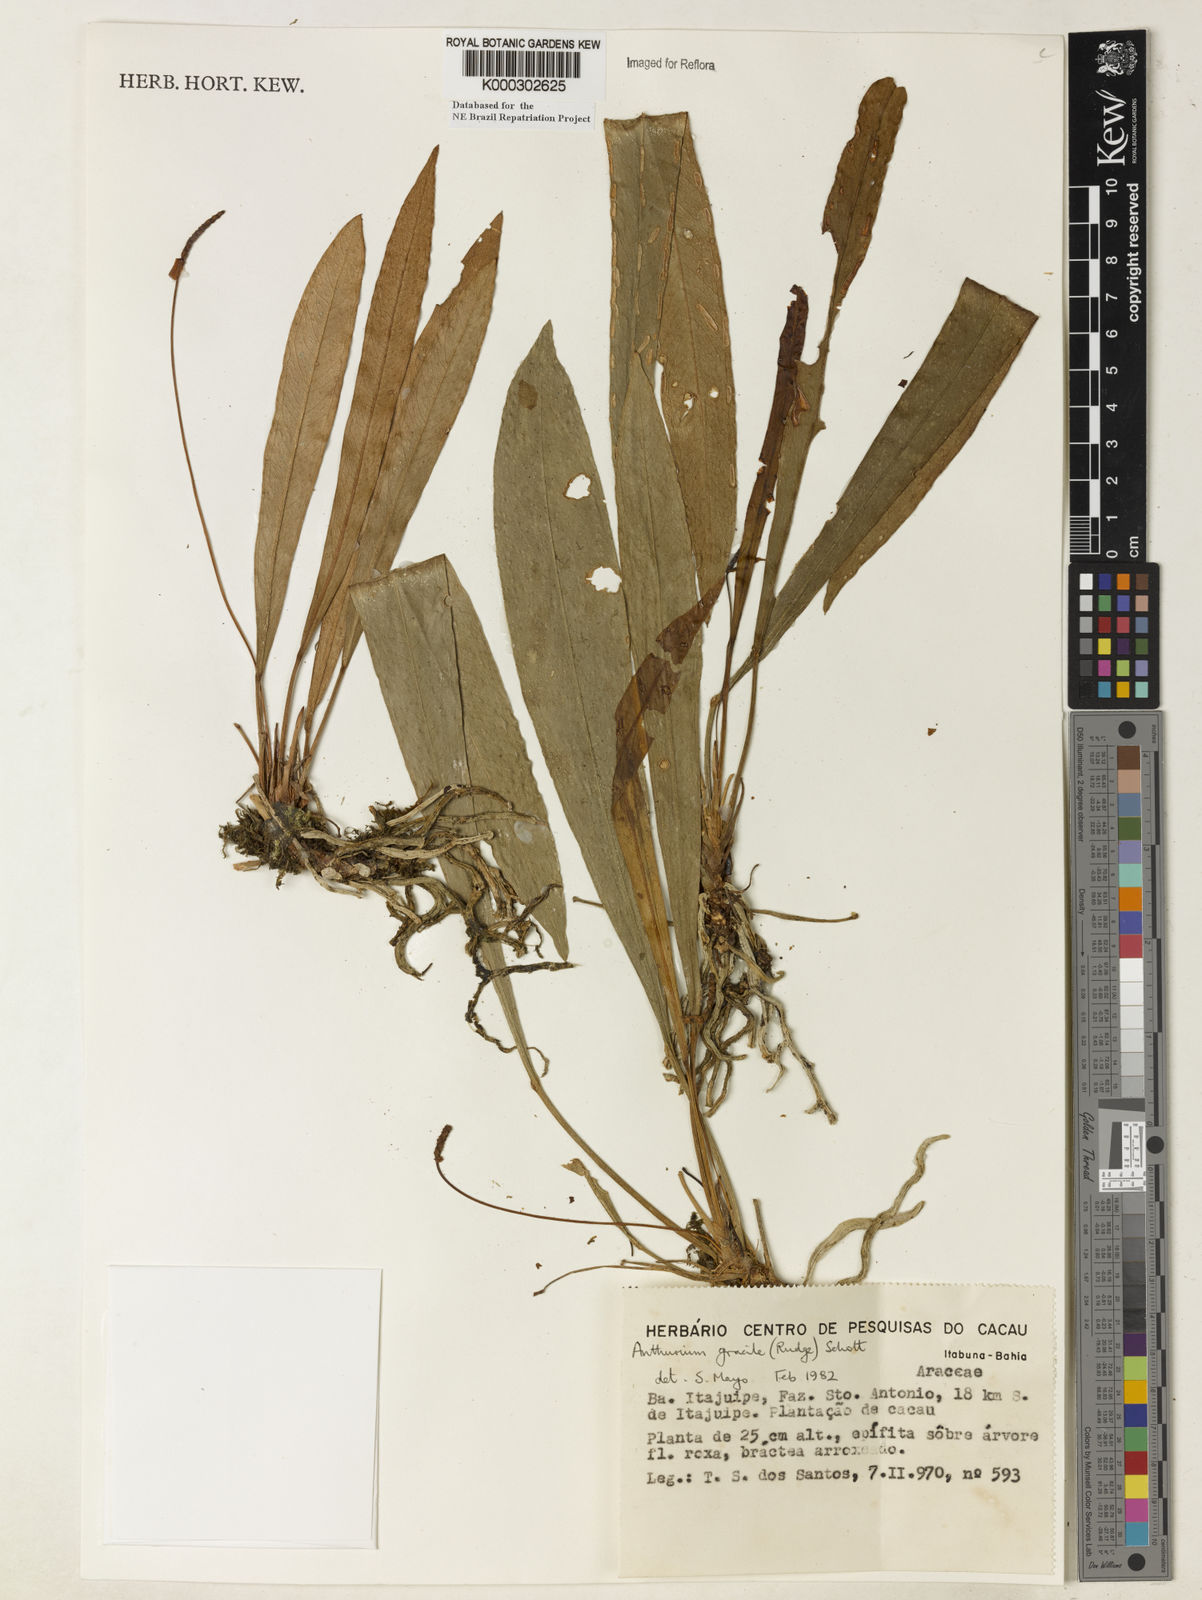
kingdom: Plantae
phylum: Tracheophyta
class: Liliopsida
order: Alismatales
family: Araceae
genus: Anthurium
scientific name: Anthurium
